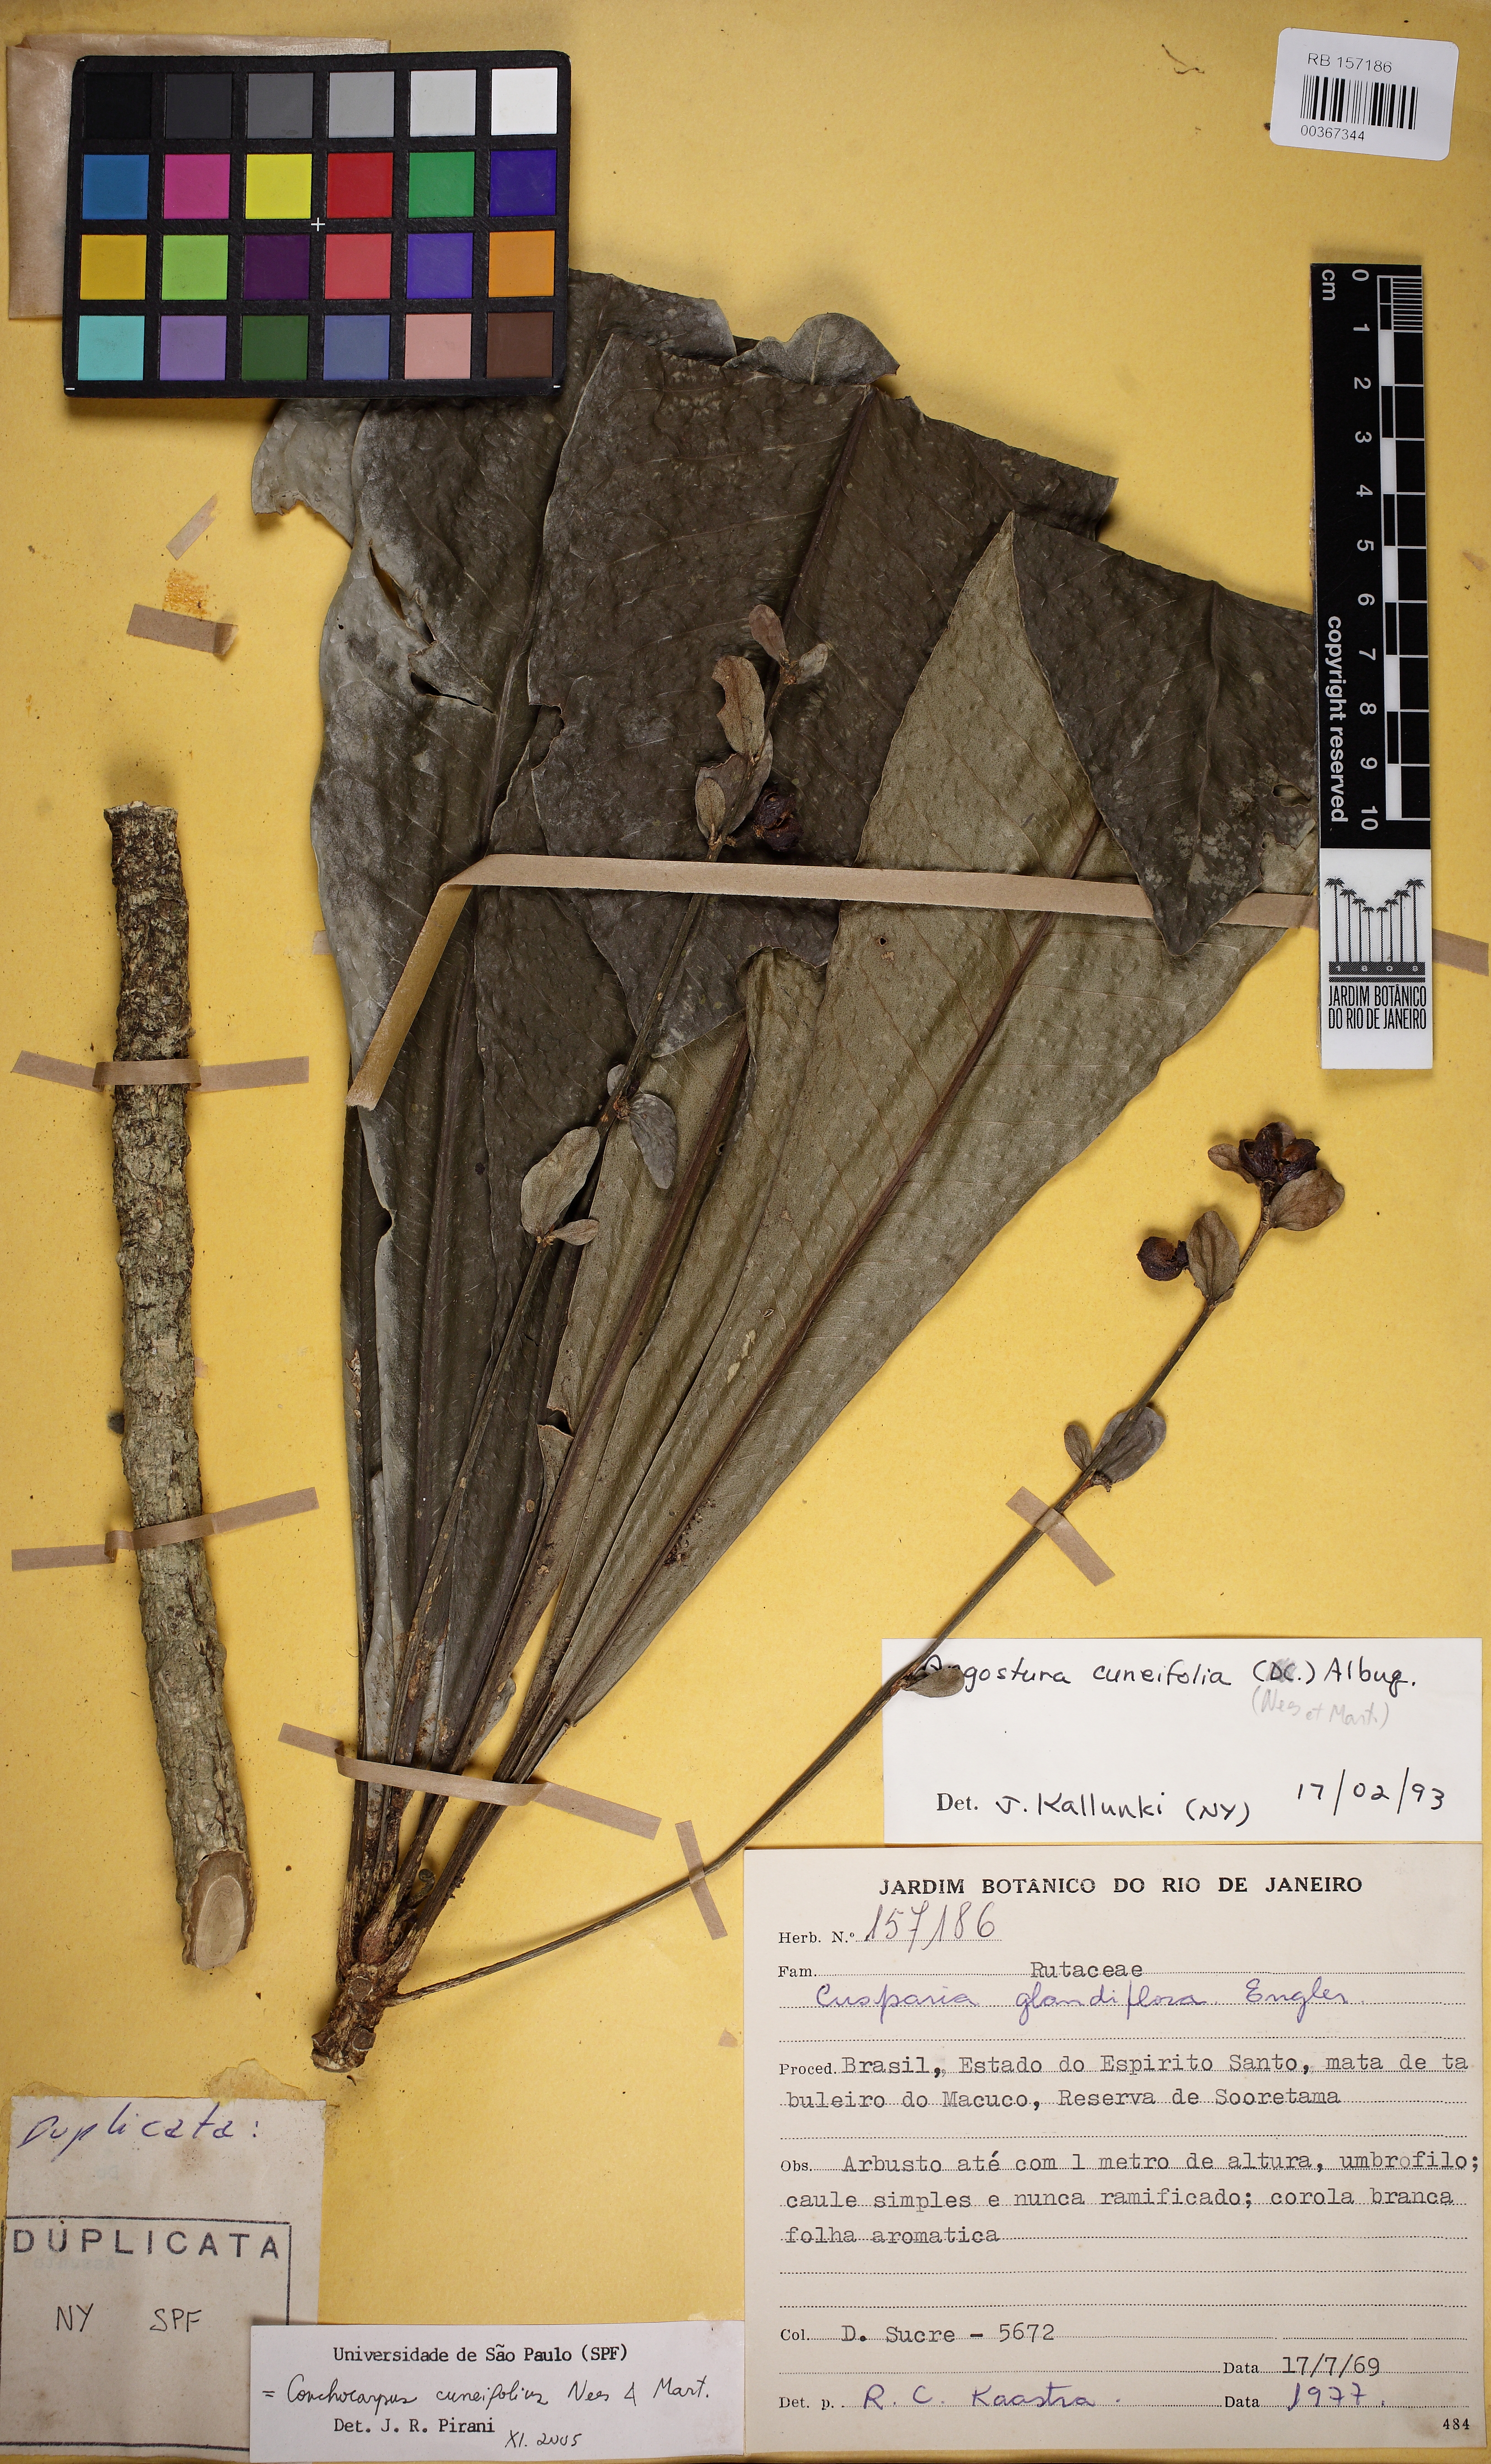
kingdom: Plantae
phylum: Tracheophyta
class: Magnoliopsida
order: Sapindales
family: Rutaceae
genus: Conchocarpus
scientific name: Conchocarpus cuneifolius
